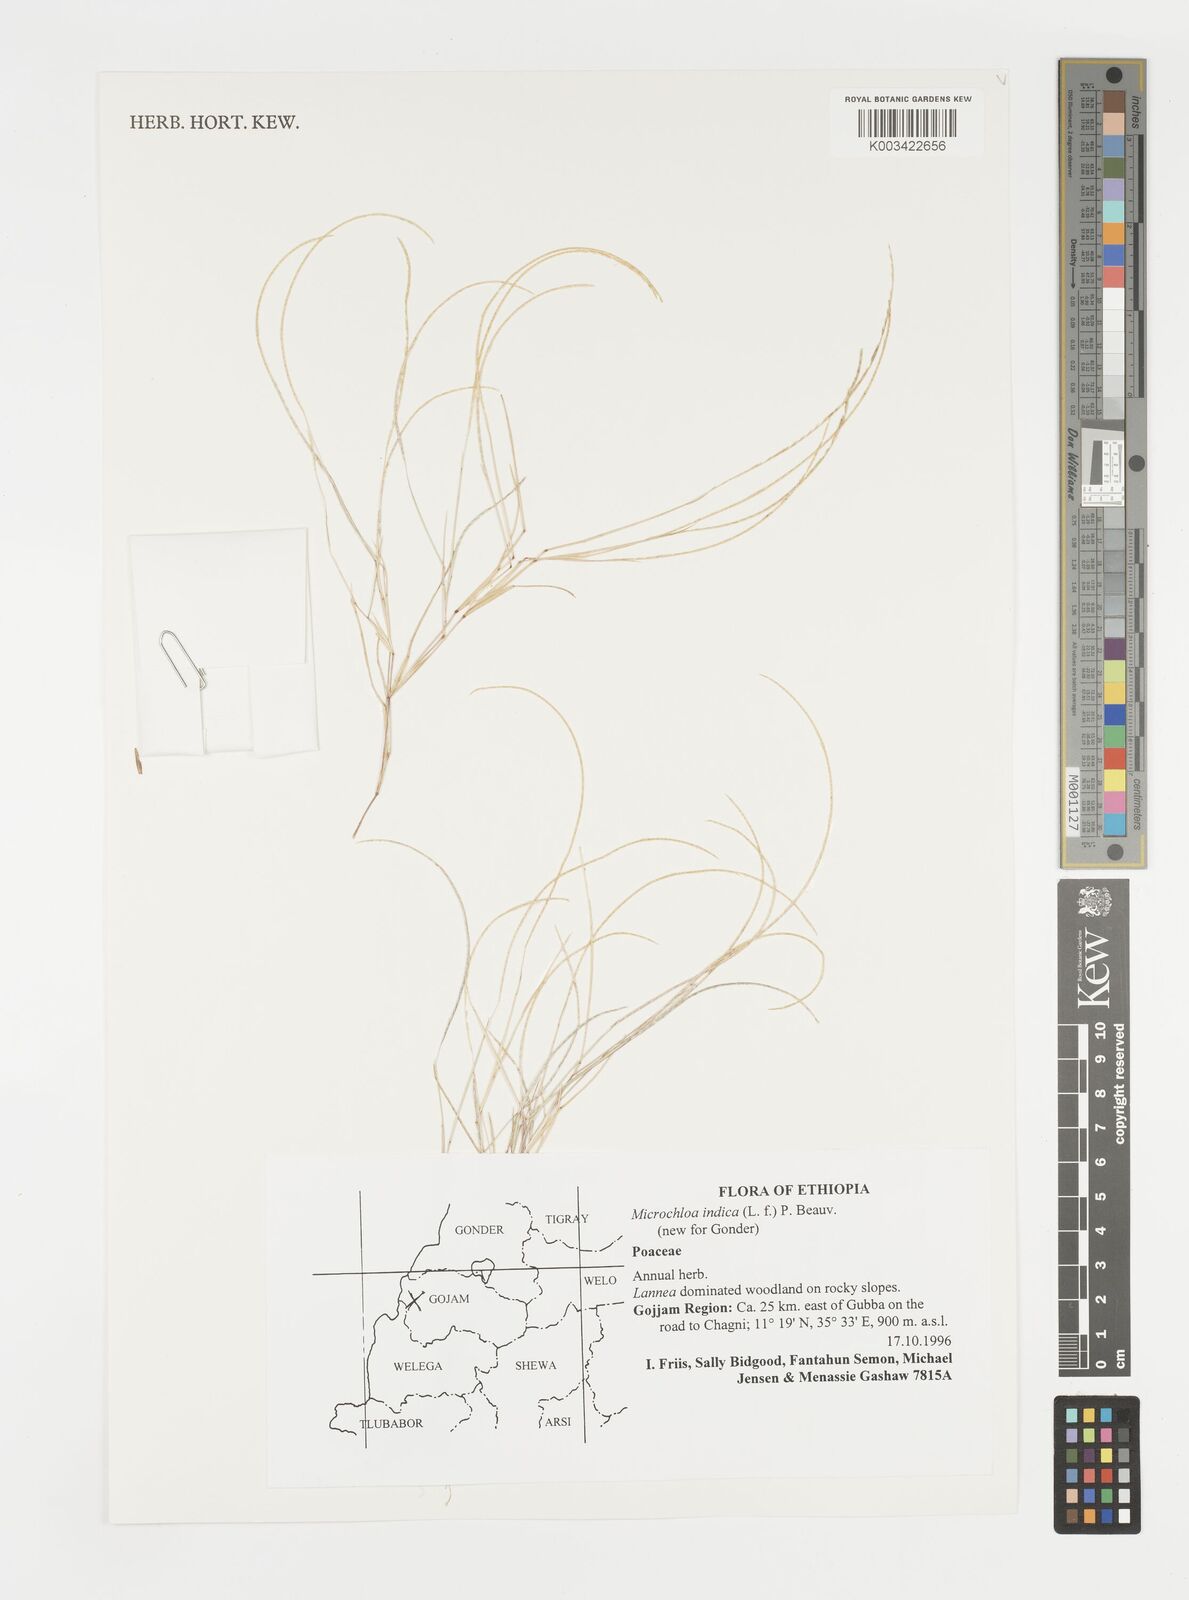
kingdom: Plantae
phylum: Tracheophyta
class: Liliopsida
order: Poales
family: Poaceae
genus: Microchloa
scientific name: Microchloa indica
